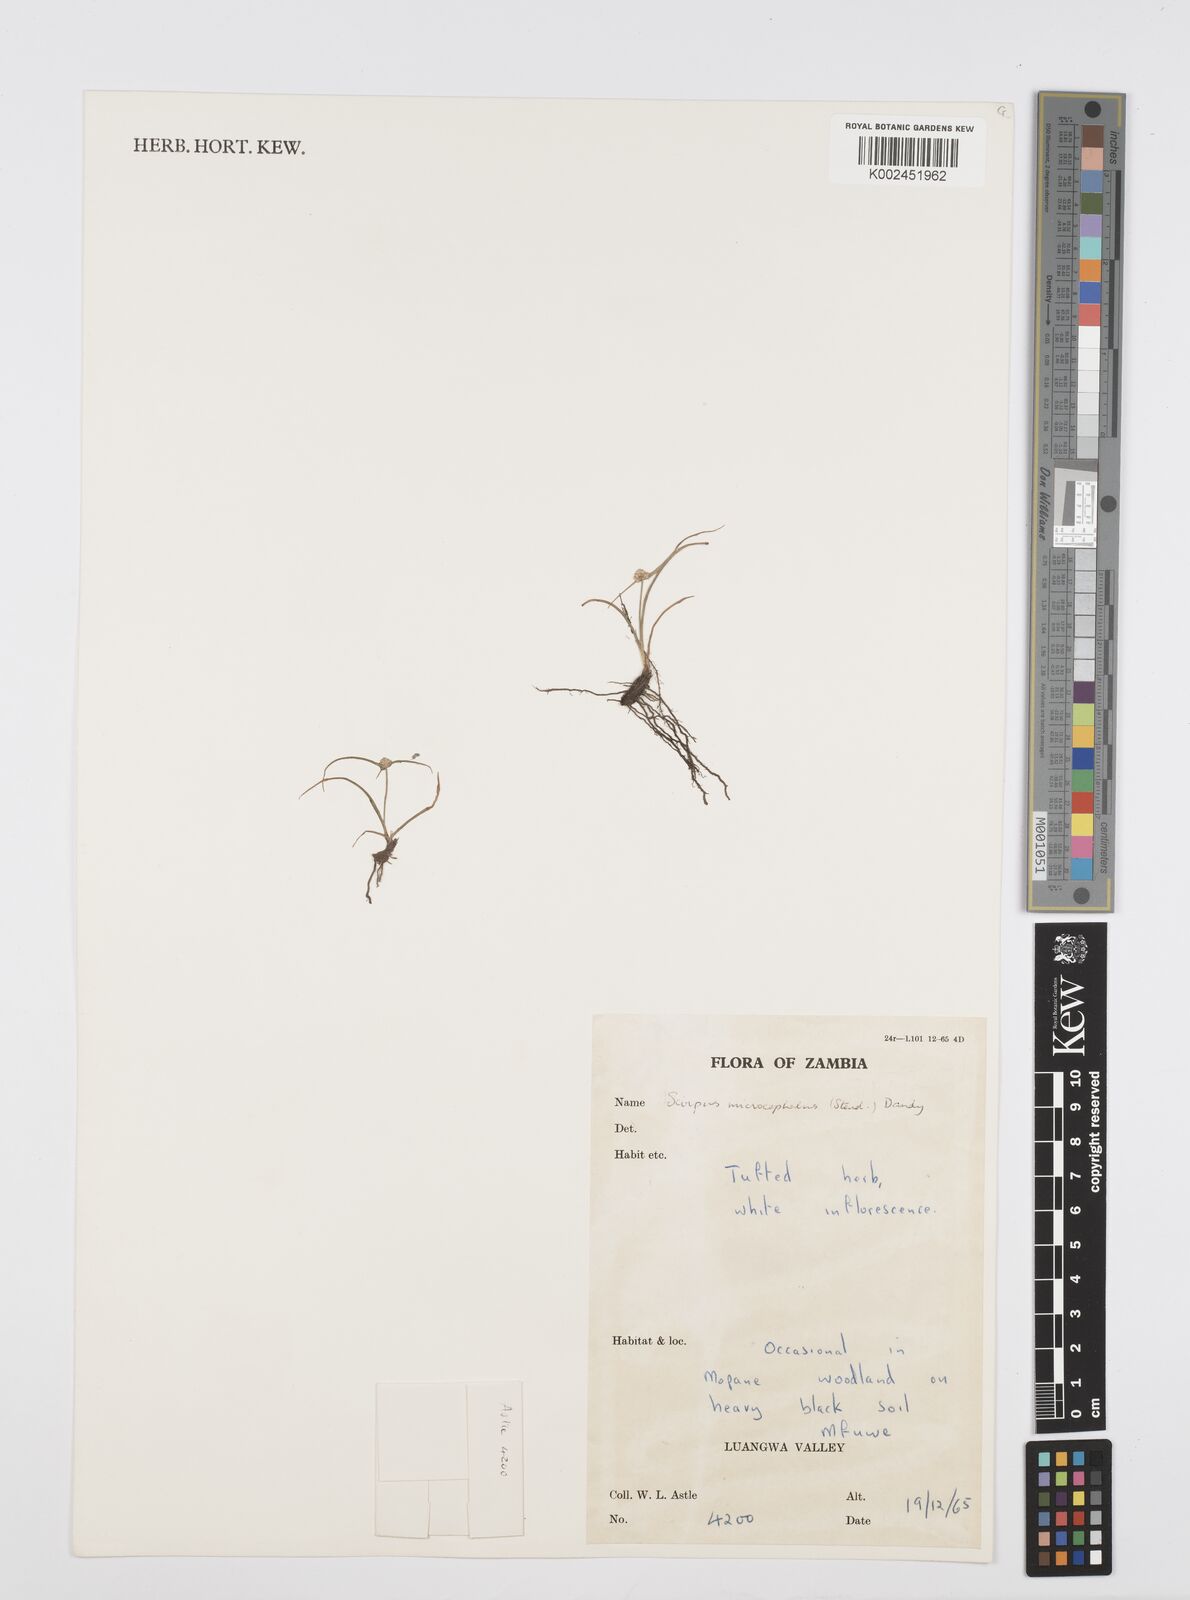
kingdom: Plantae
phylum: Tracheophyta
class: Liliopsida
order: Poales
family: Cyperaceae
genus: Cyperus
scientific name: Cyperus microcephalus
